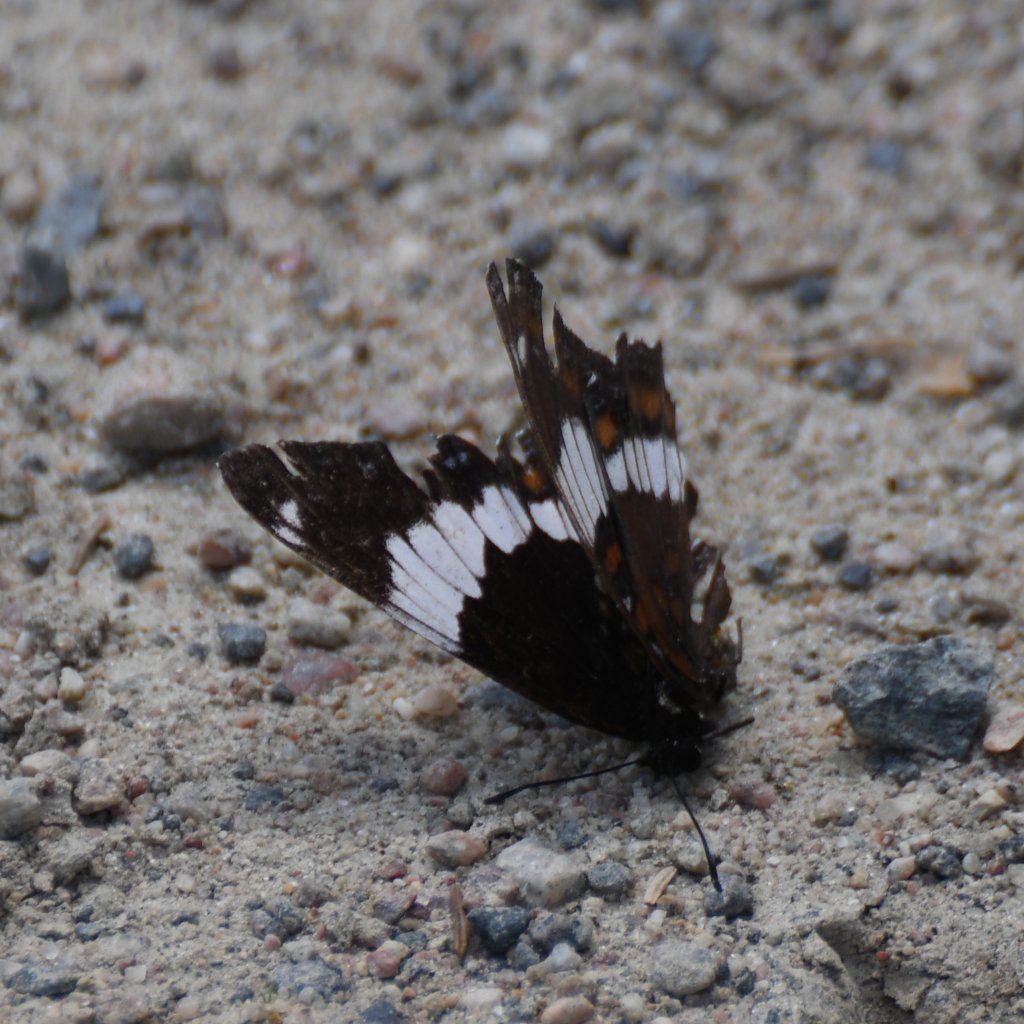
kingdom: Animalia
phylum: Arthropoda
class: Insecta
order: Lepidoptera
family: Nymphalidae
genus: Limenitis
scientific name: Limenitis arthemis
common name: Red-spotted Admiral
